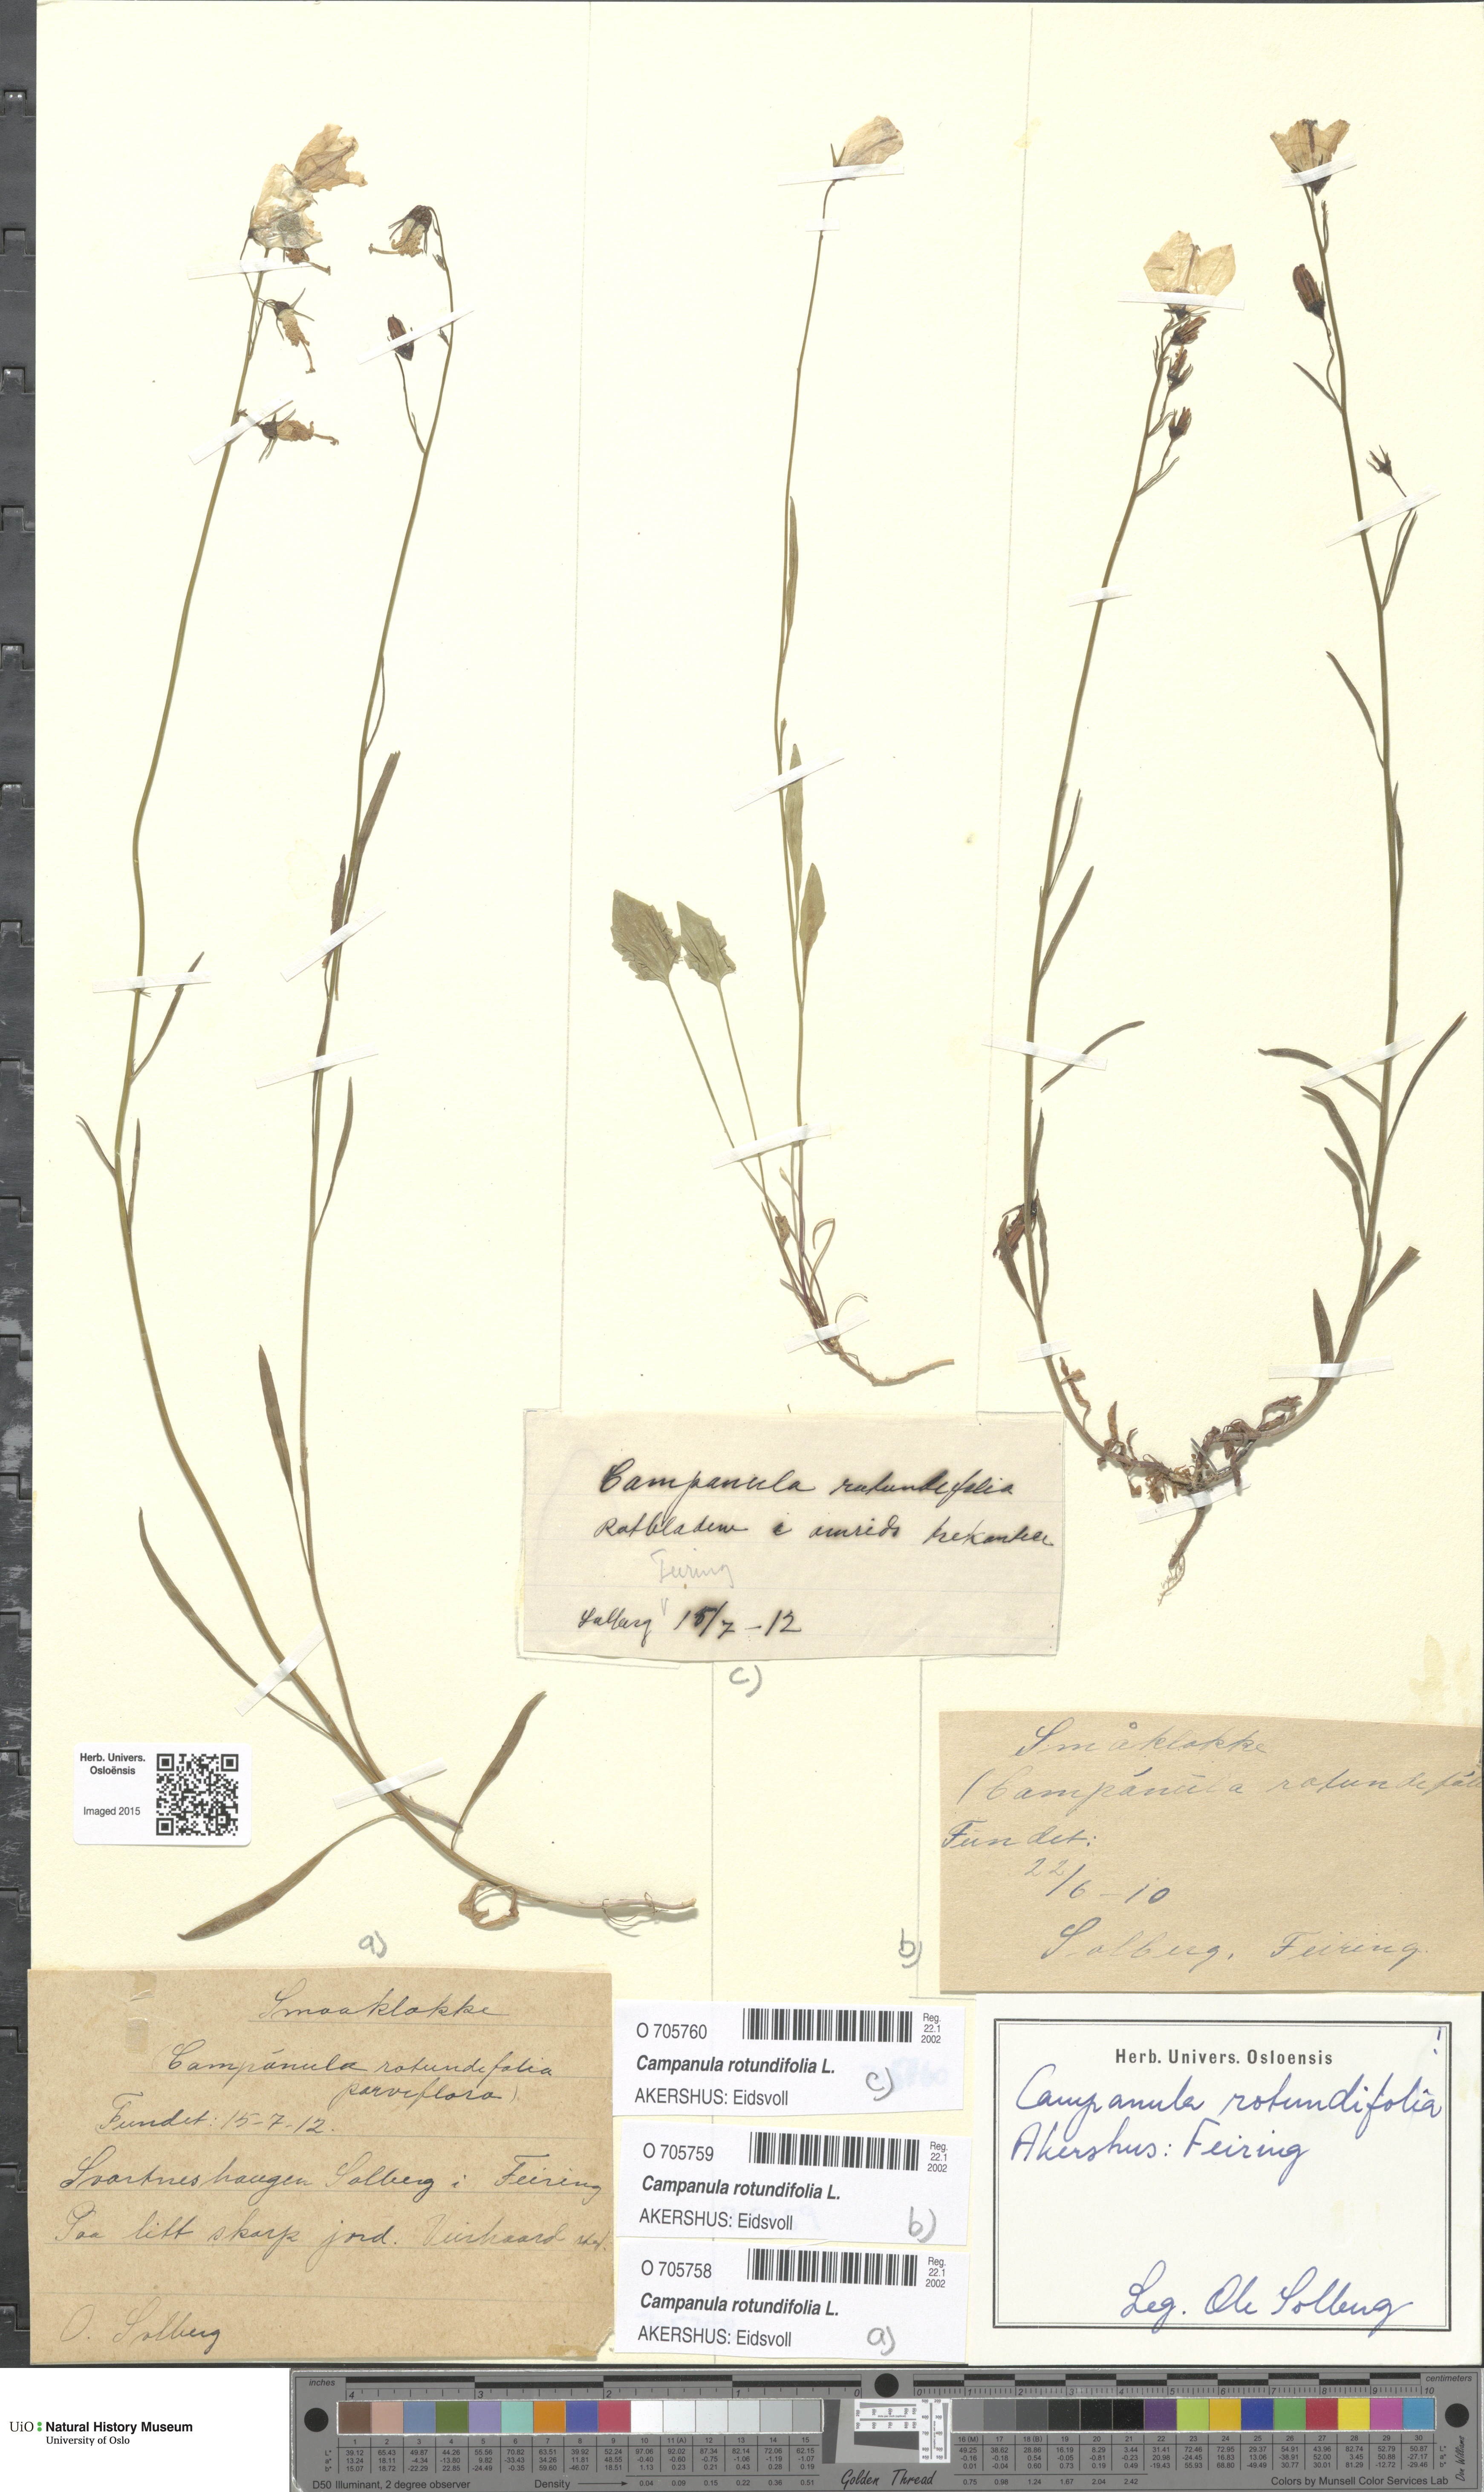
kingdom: Plantae
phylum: Tracheophyta
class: Magnoliopsida
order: Asterales
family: Campanulaceae
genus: Campanula
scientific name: Campanula rotundifolia
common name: Harebell
